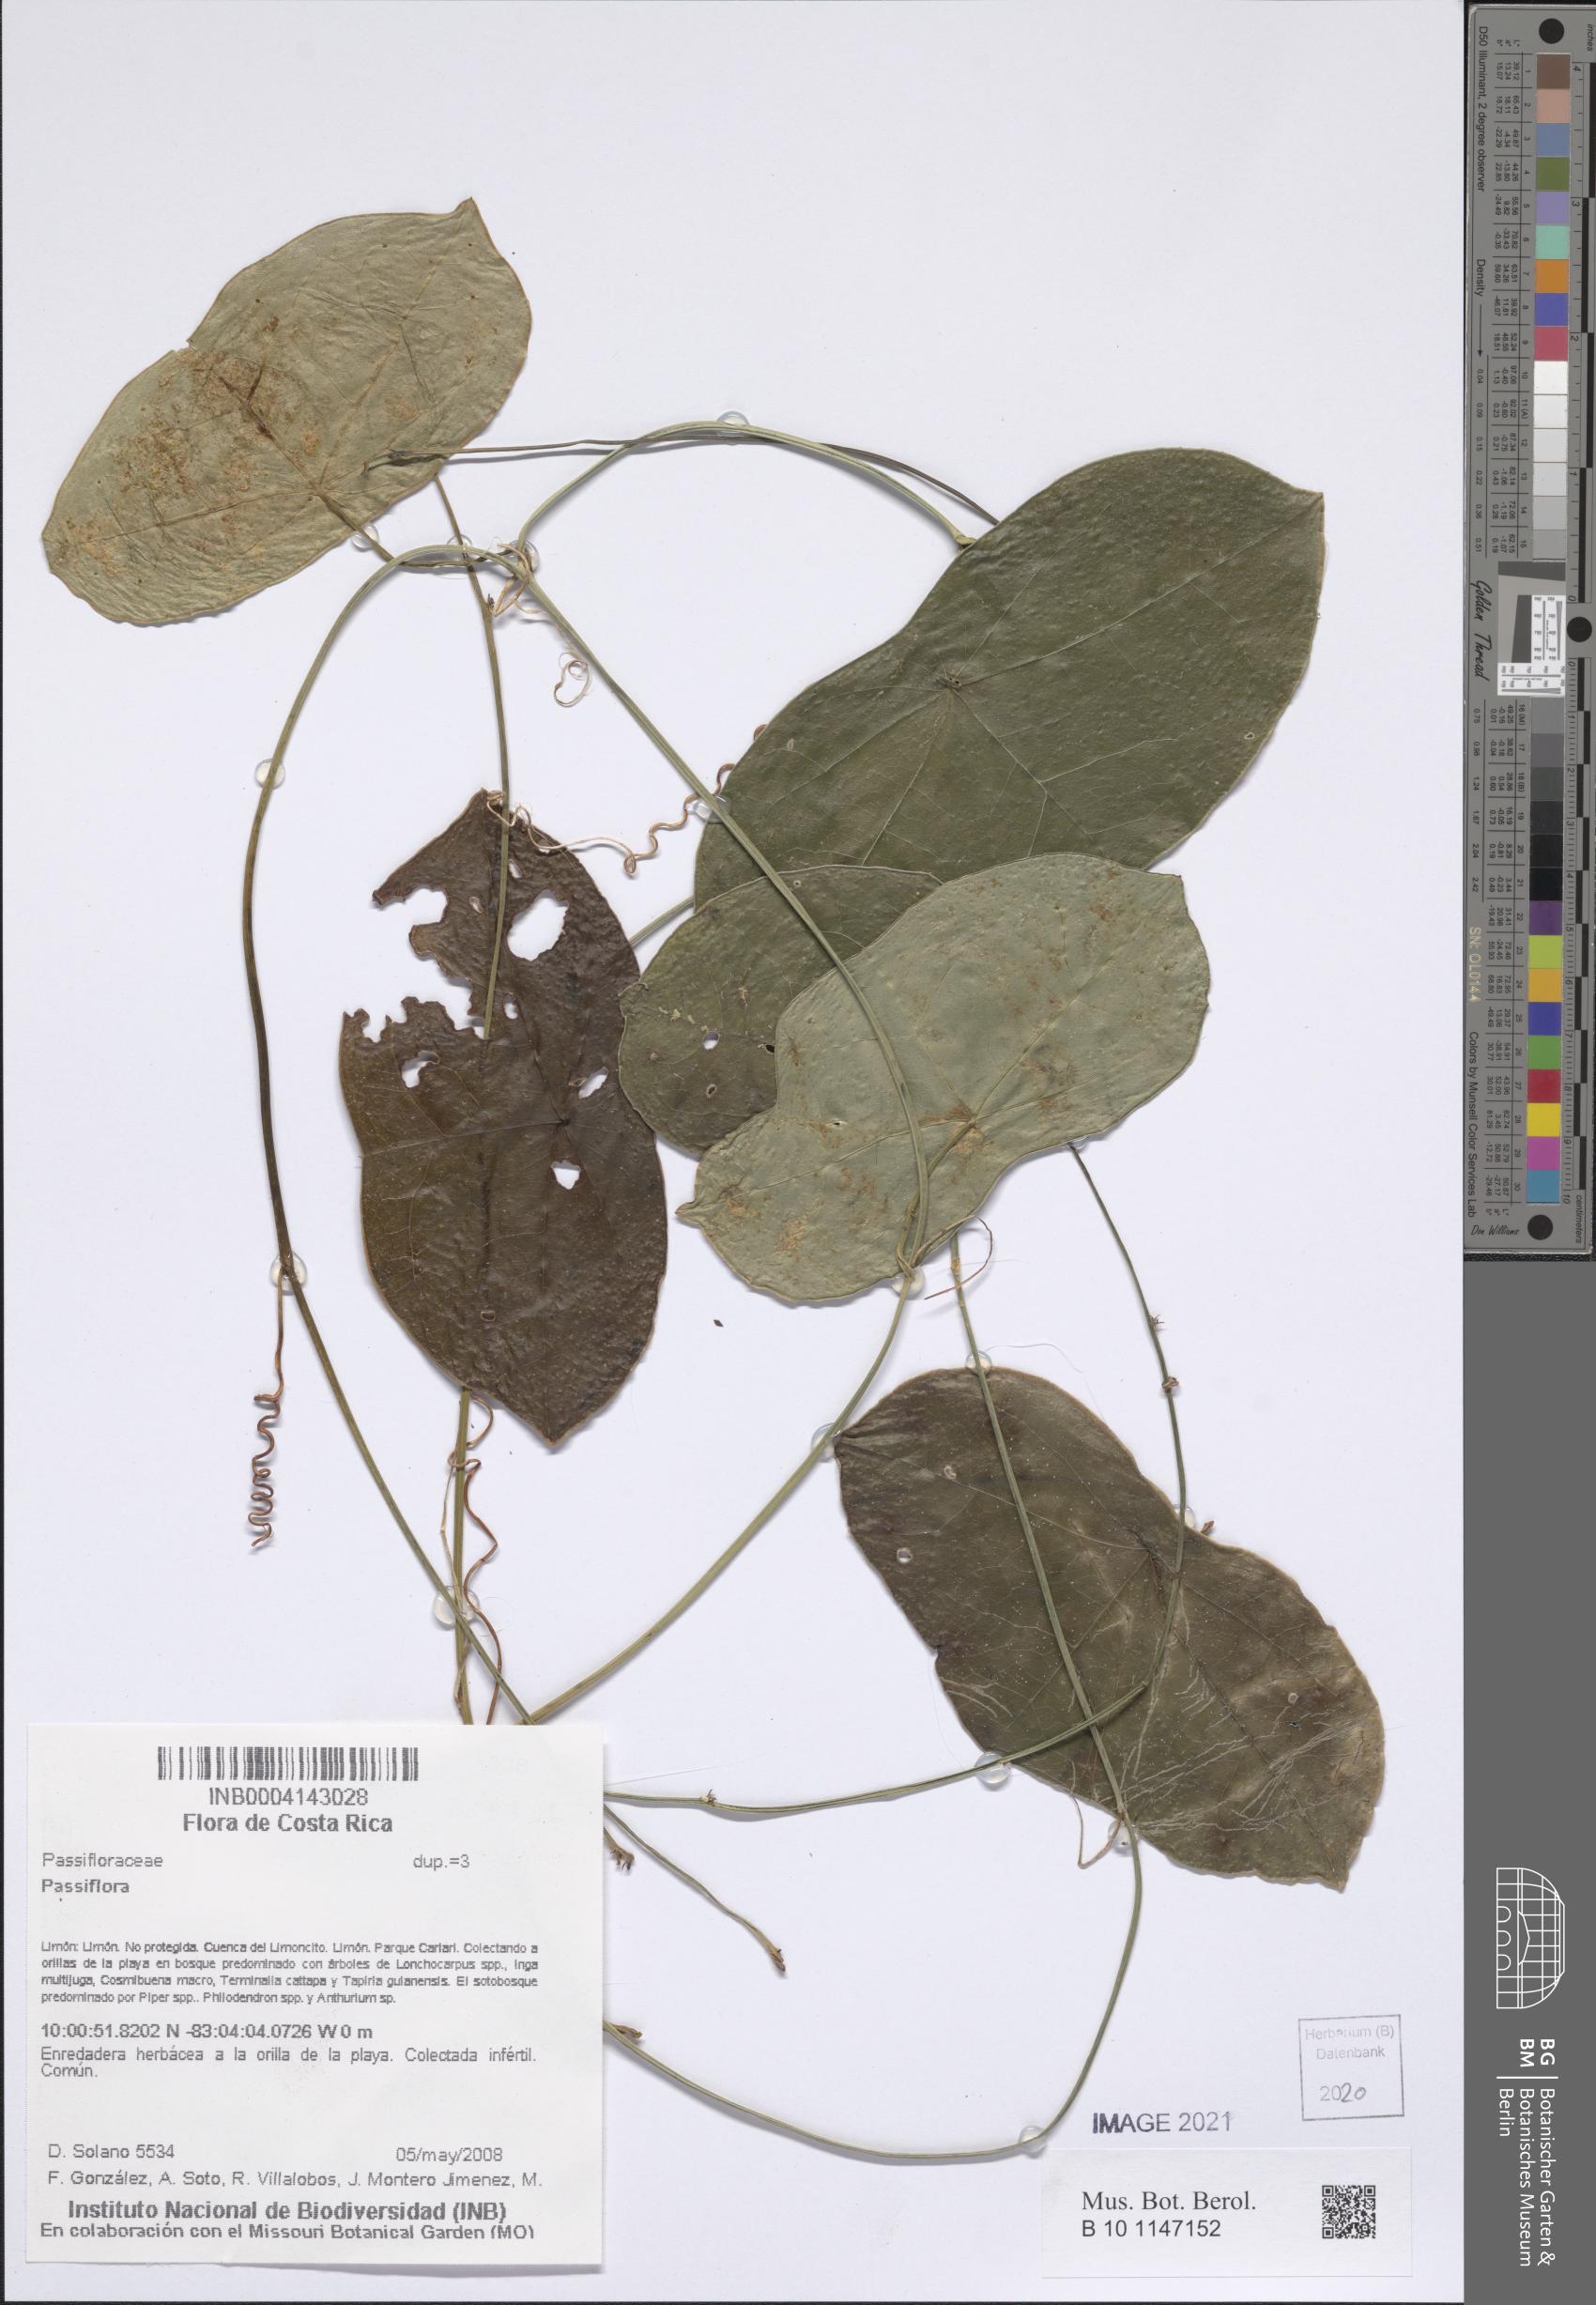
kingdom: Plantae
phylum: Tracheophyta
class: Magnoliopsida
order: Malpighiales
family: Passifloraceae
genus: Passiflora
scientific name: Passiflora
